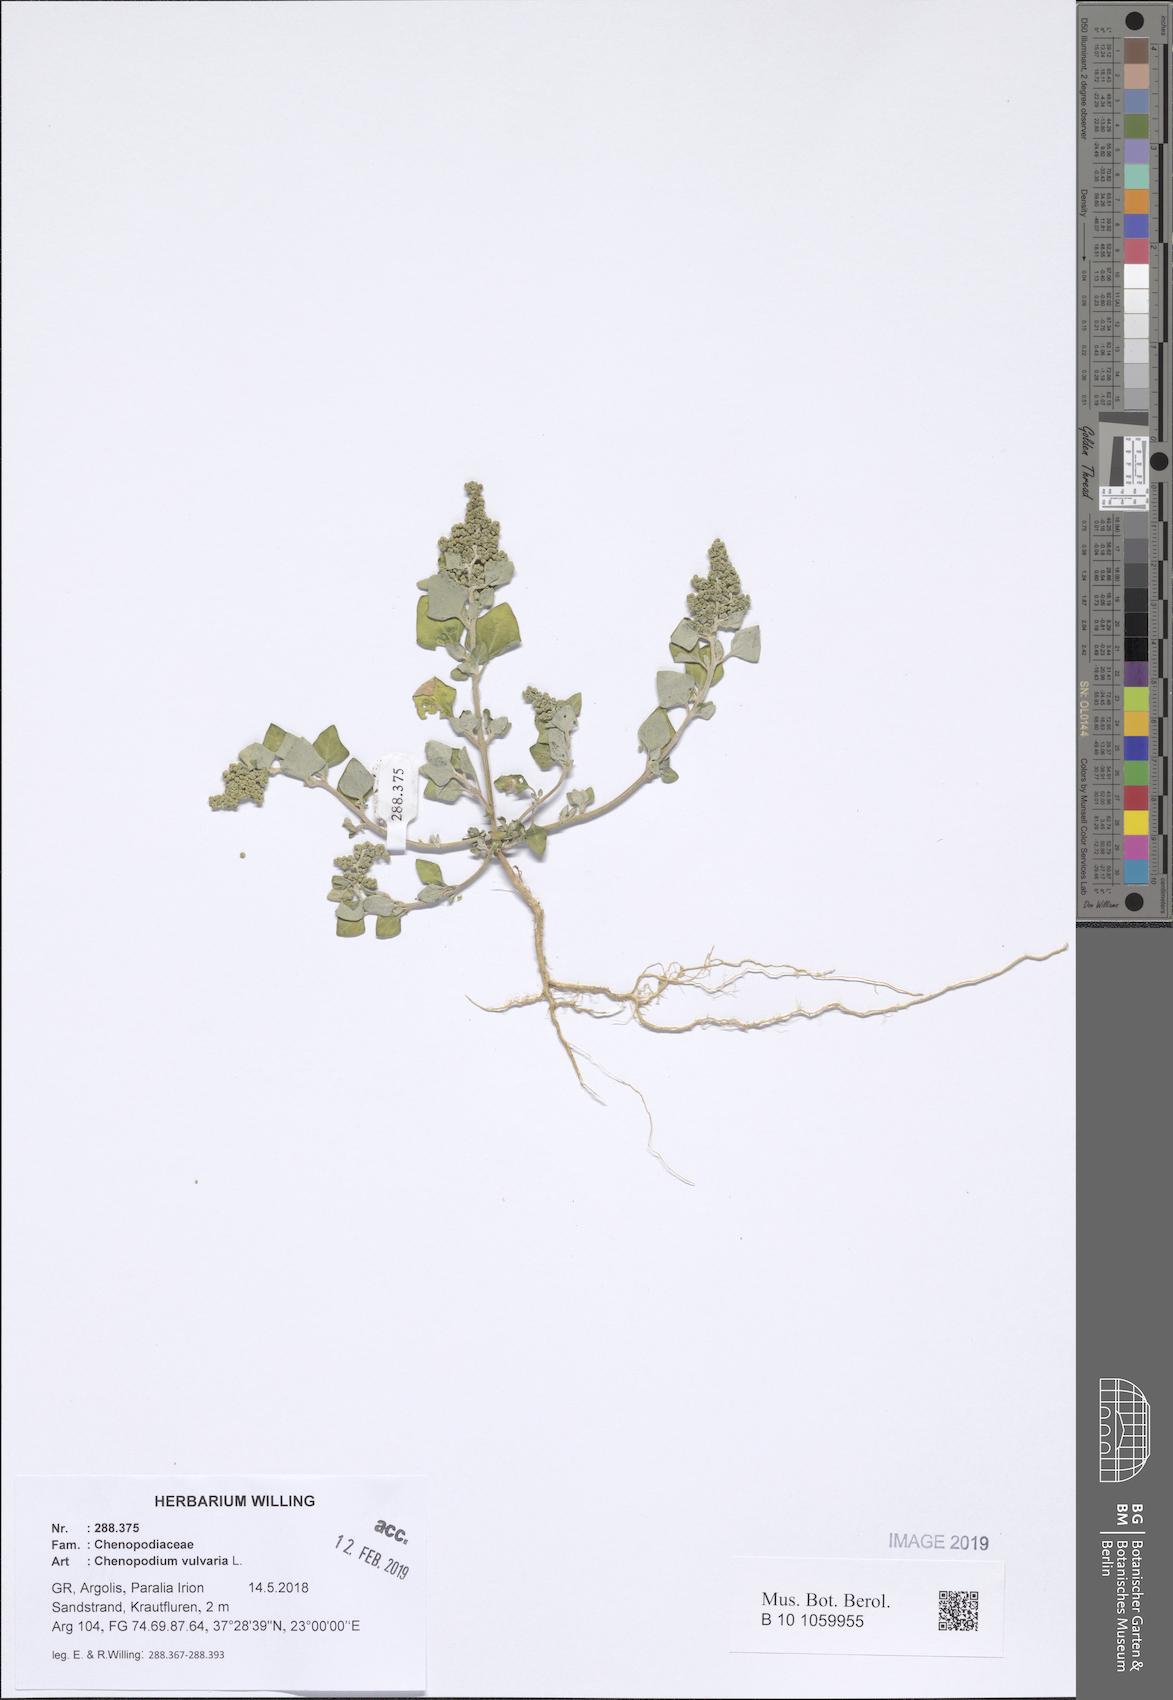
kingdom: Plantae
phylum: Tracheophyta
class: Magnoliopsida
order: Caryophyllales
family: Amaranthaceae
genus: Chenopodium
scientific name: Chenopodium vulvaria
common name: Stinking goosefoot
